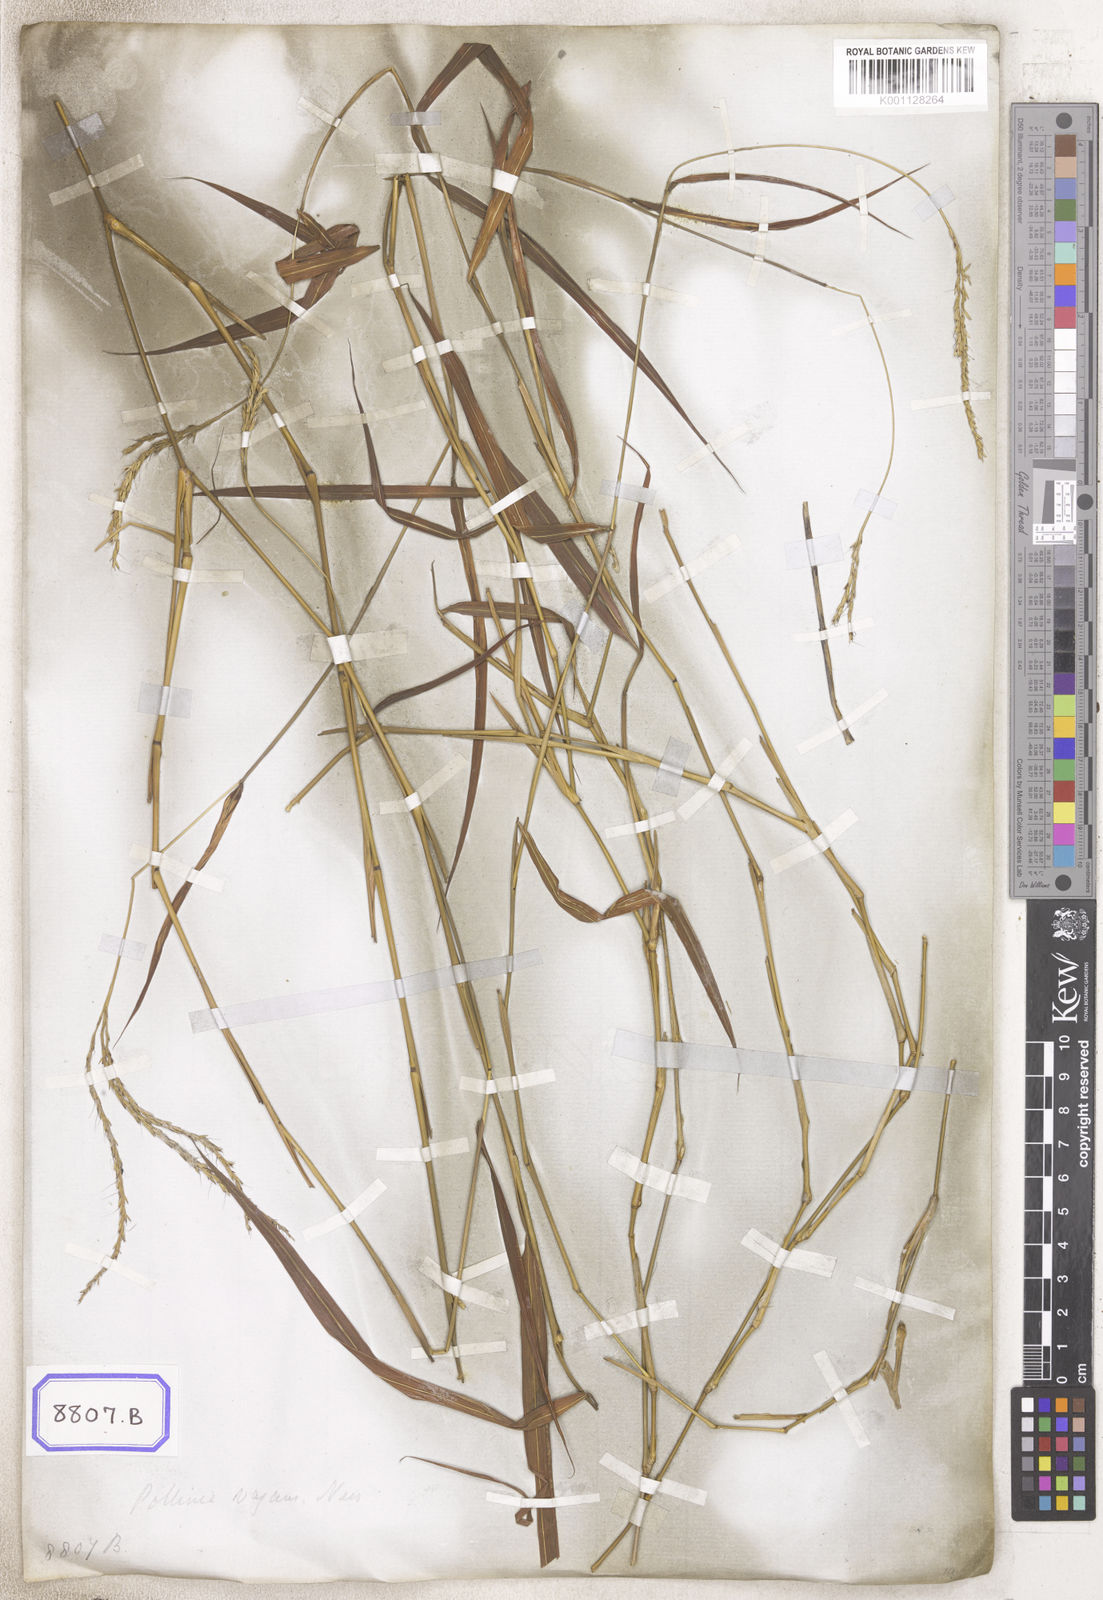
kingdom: Plantae
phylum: Tracheophyta
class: Liliopsida
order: Poales
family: Poaceae
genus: Andropogon
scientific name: Andropogon
